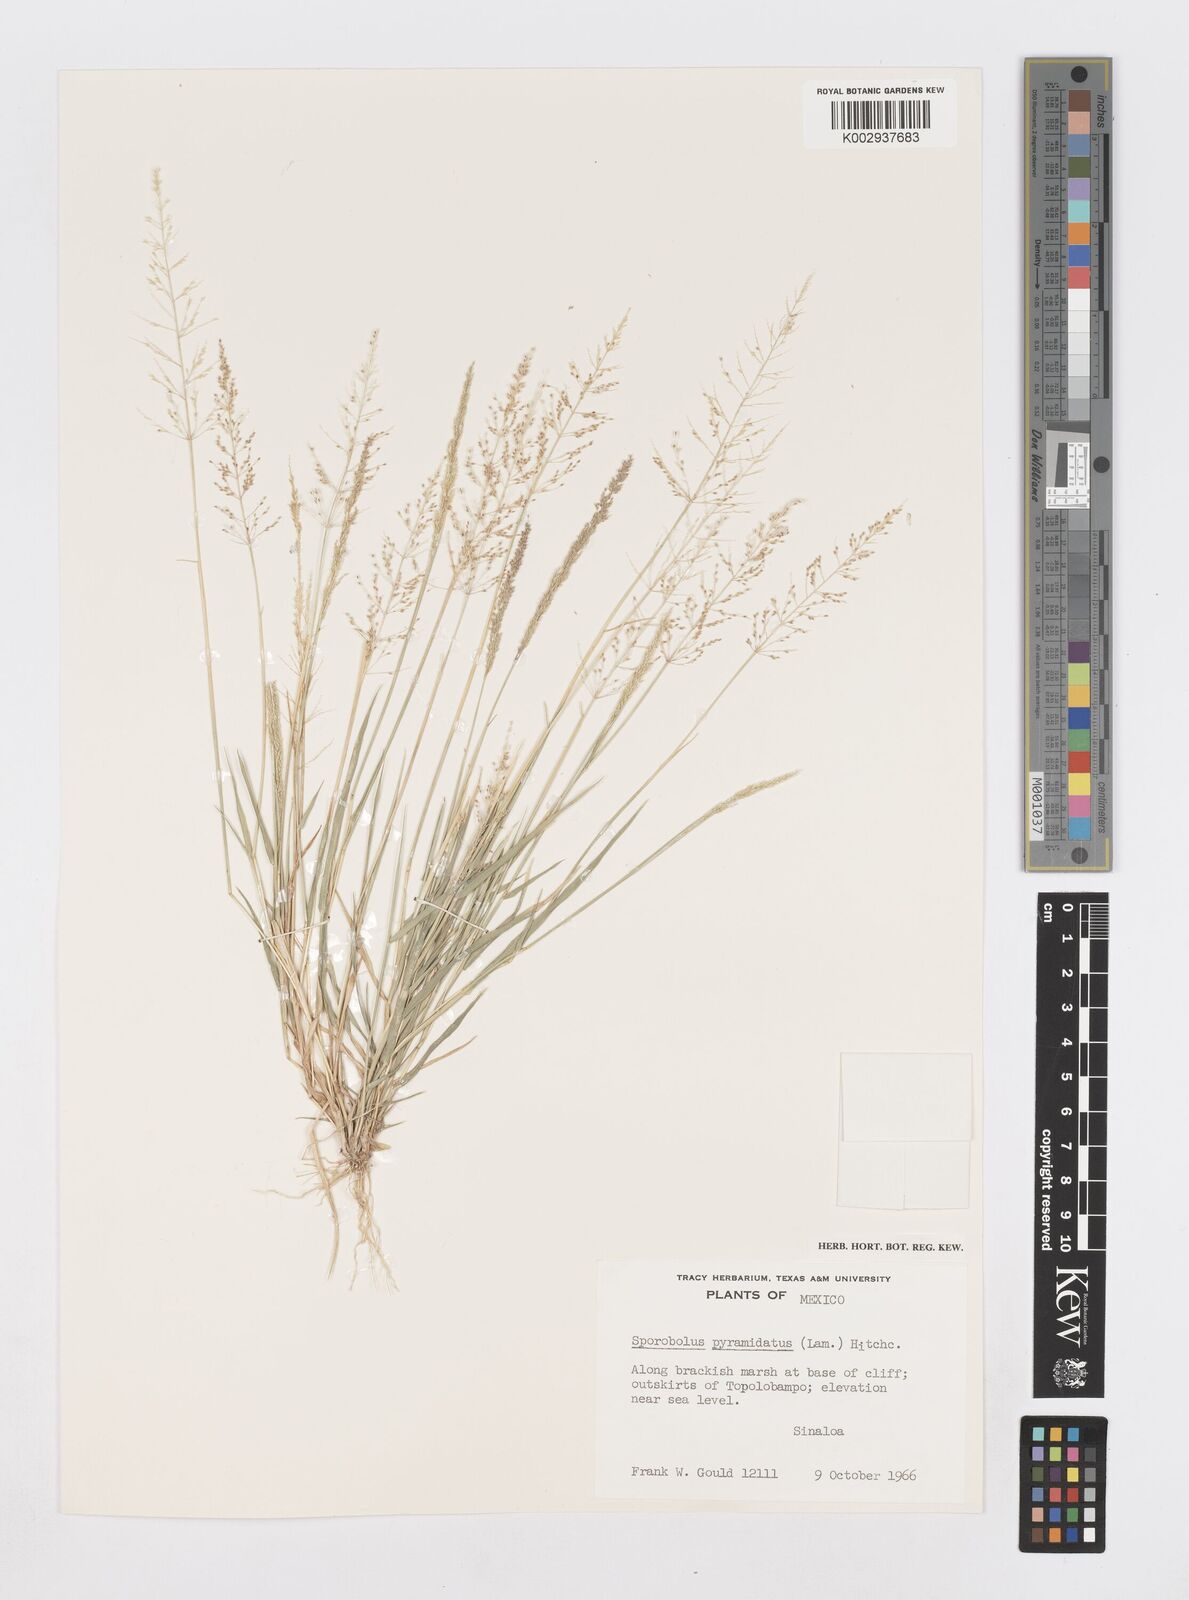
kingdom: Plantae
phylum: Tracheophyta
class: Liliopsida
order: Poales
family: Poaceae
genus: Sporobolus
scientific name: Sporobolus pyramidatus
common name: Whorled dropseed
